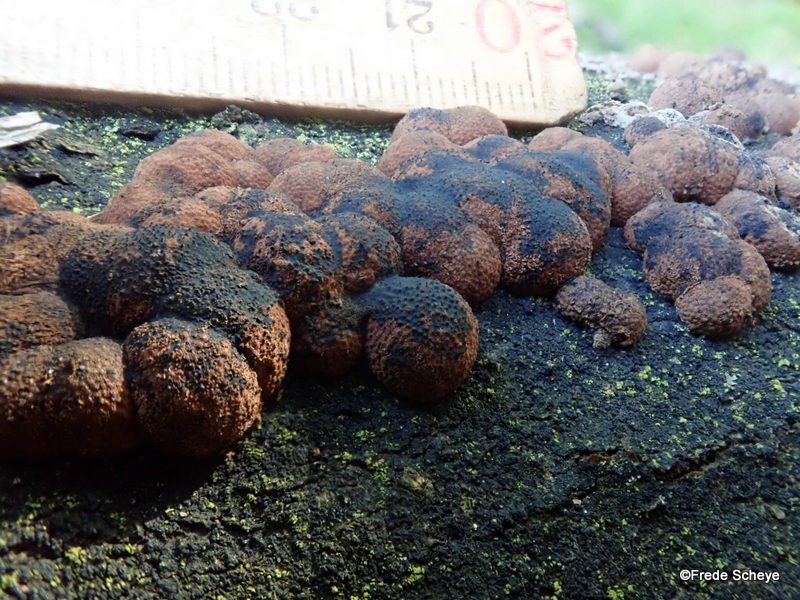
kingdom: Fungi
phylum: Ascomycota
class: Sordariomycetes
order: Xylariales
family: Hypoxylaceae
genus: Hypoxylon
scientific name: Hypoxylon fragiforme
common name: kuljordbær
